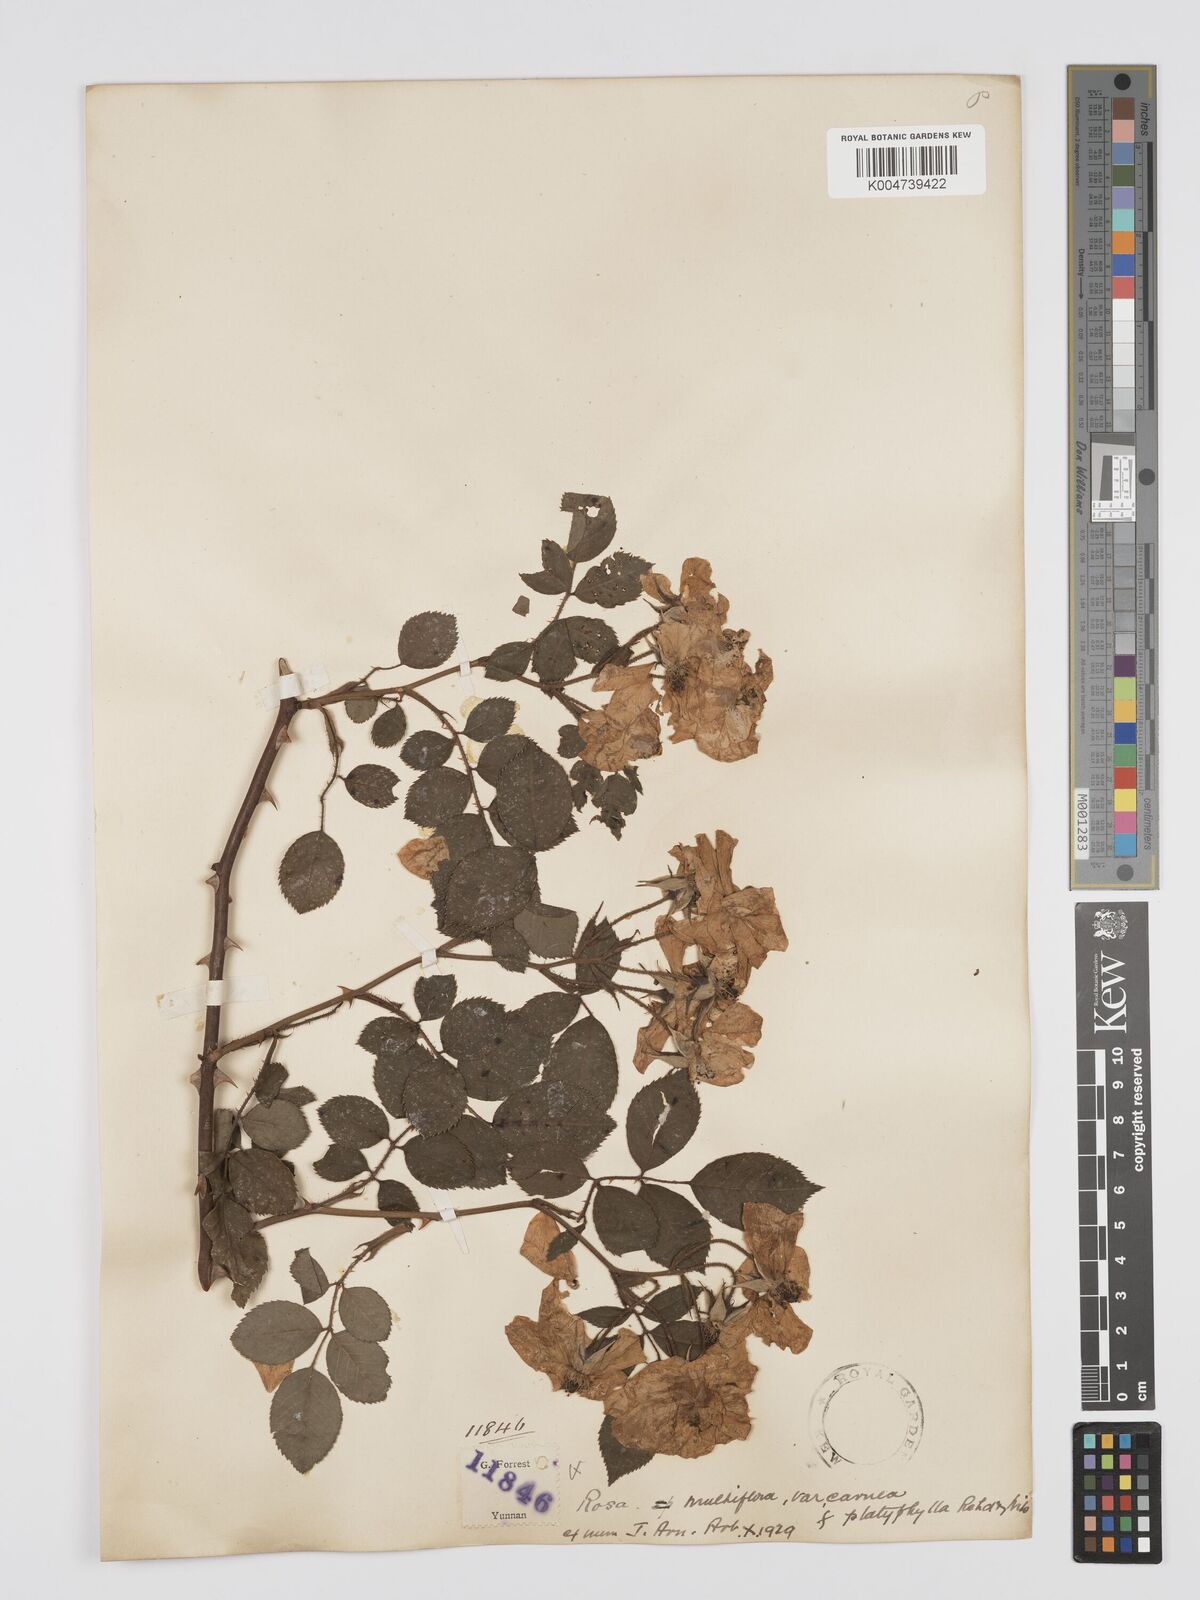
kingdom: Plantae
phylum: Tracheophyta
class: Magnoliopsida
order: Rosales
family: Rosaceae
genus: Rosa
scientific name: Rosa multiflora
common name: Multiflora rose
